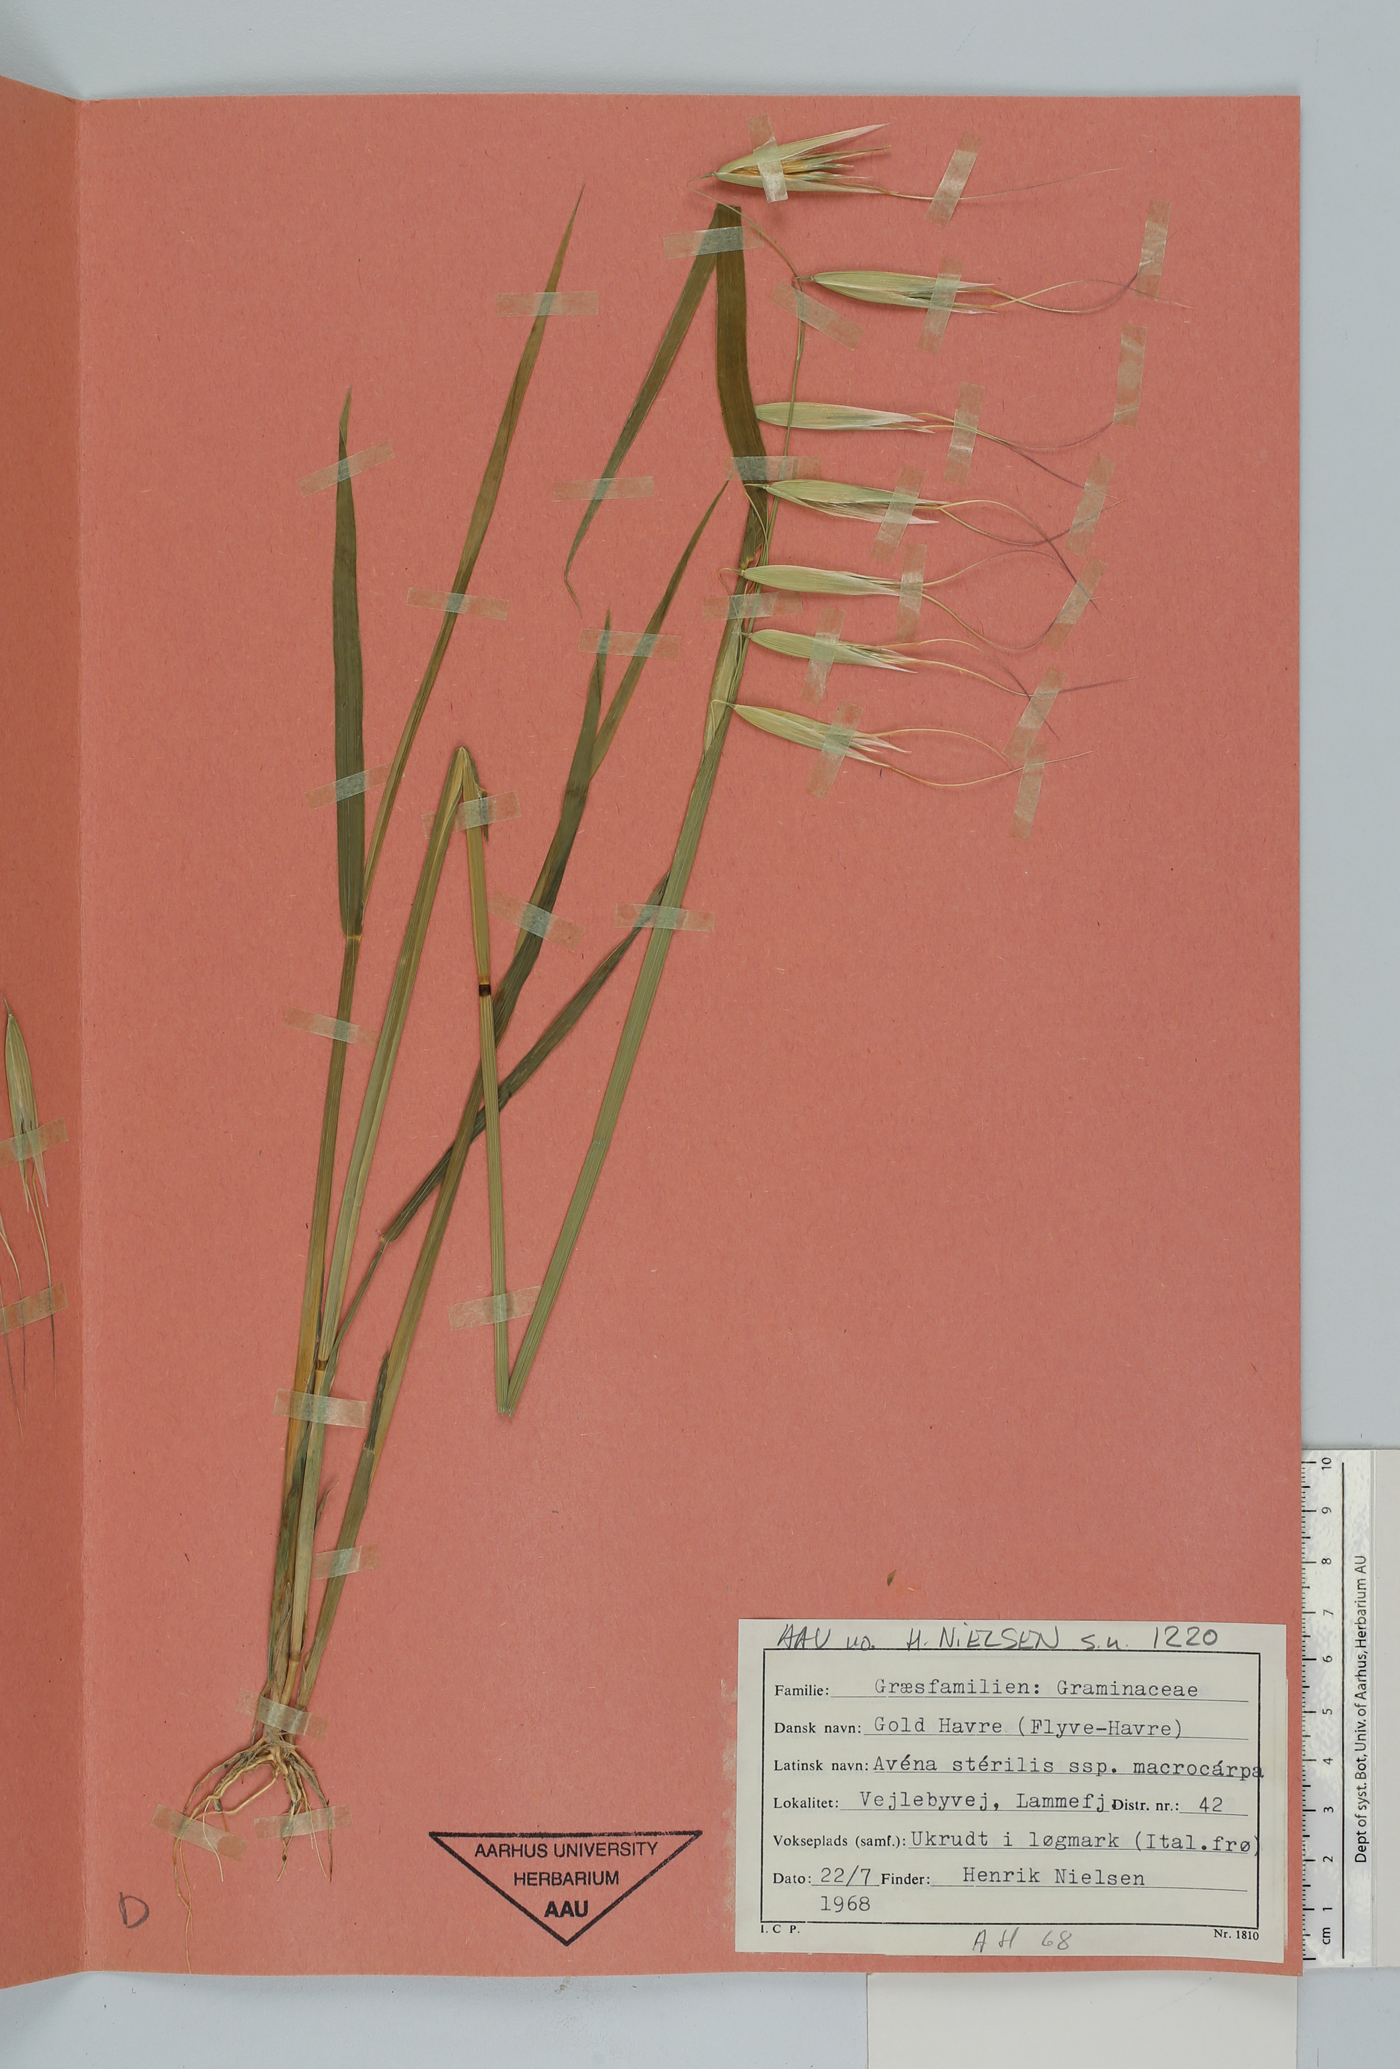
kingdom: Plantae
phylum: Tracheophyta
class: Liliopsida
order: Poales
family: Poaceae
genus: Avena
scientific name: Avena sterilis
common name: Animated oat
